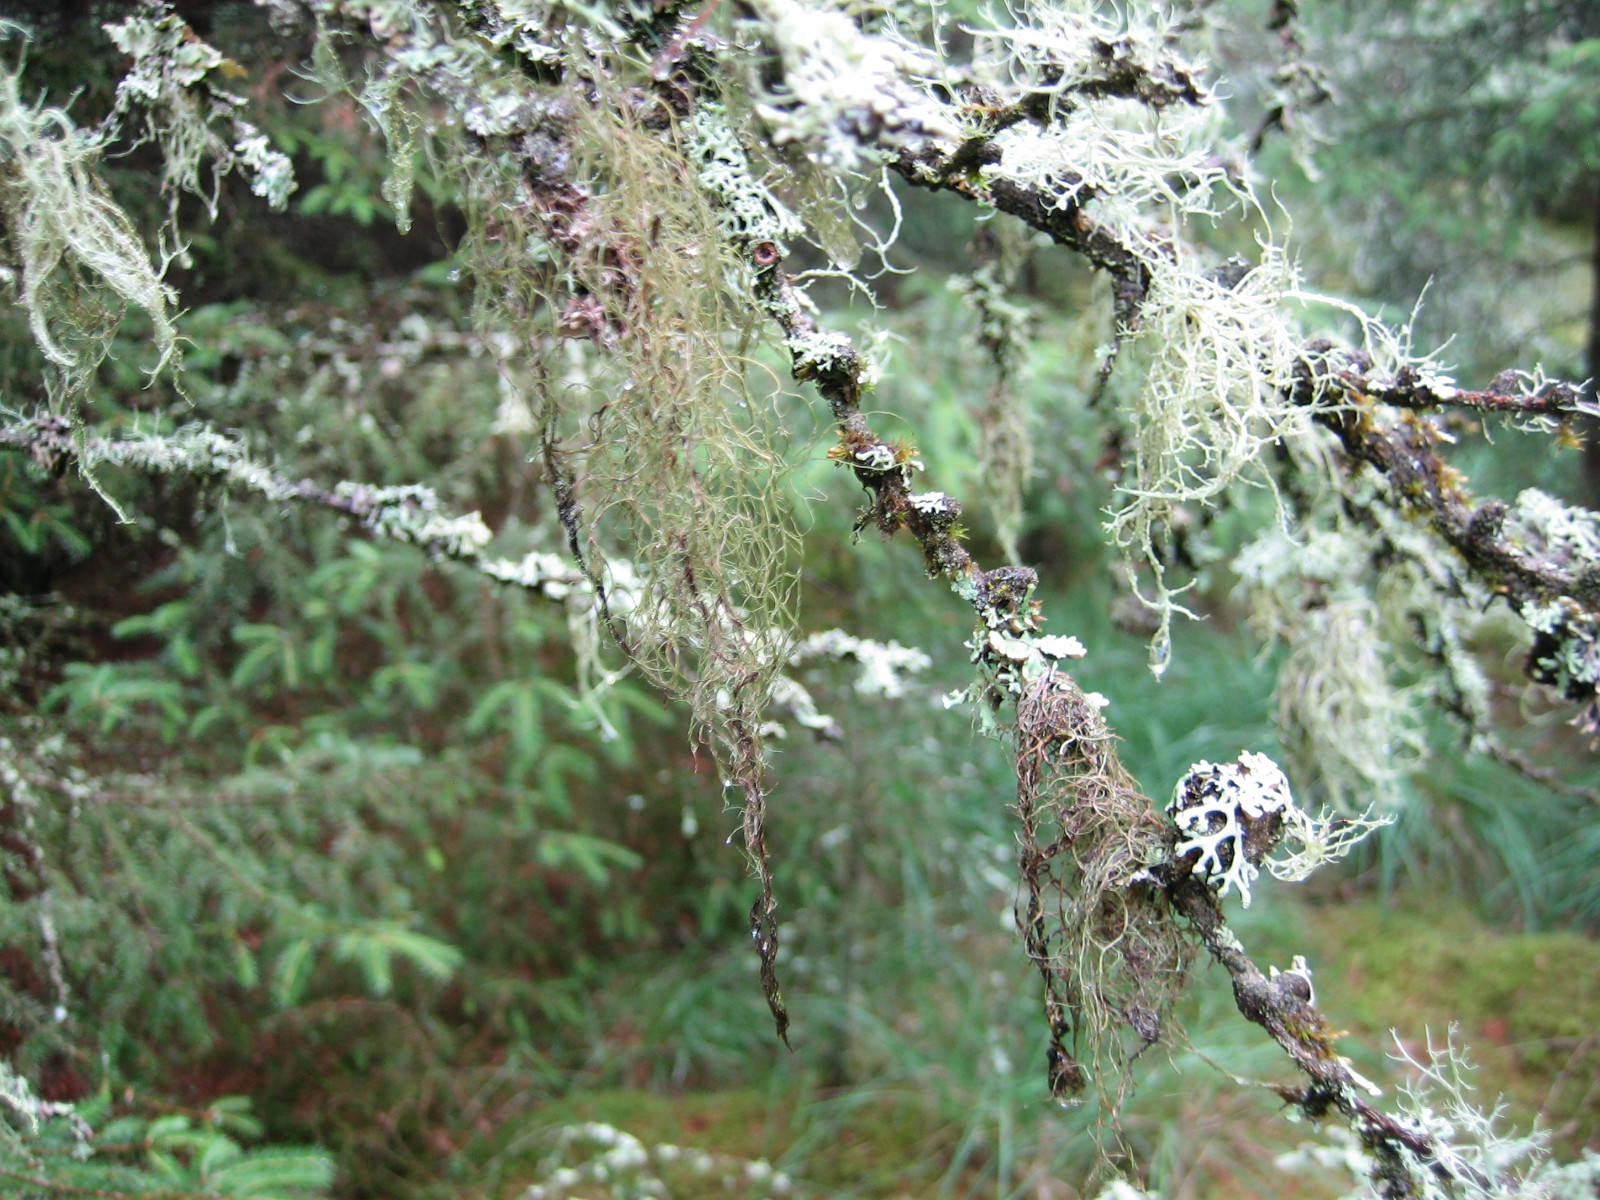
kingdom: Fungi
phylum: Ascomycota
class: Lecanoromycetes
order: Lecanorales
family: Parmeliaceae
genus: Bryoria
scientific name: Bryoria capillaris
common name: grå mankelav
